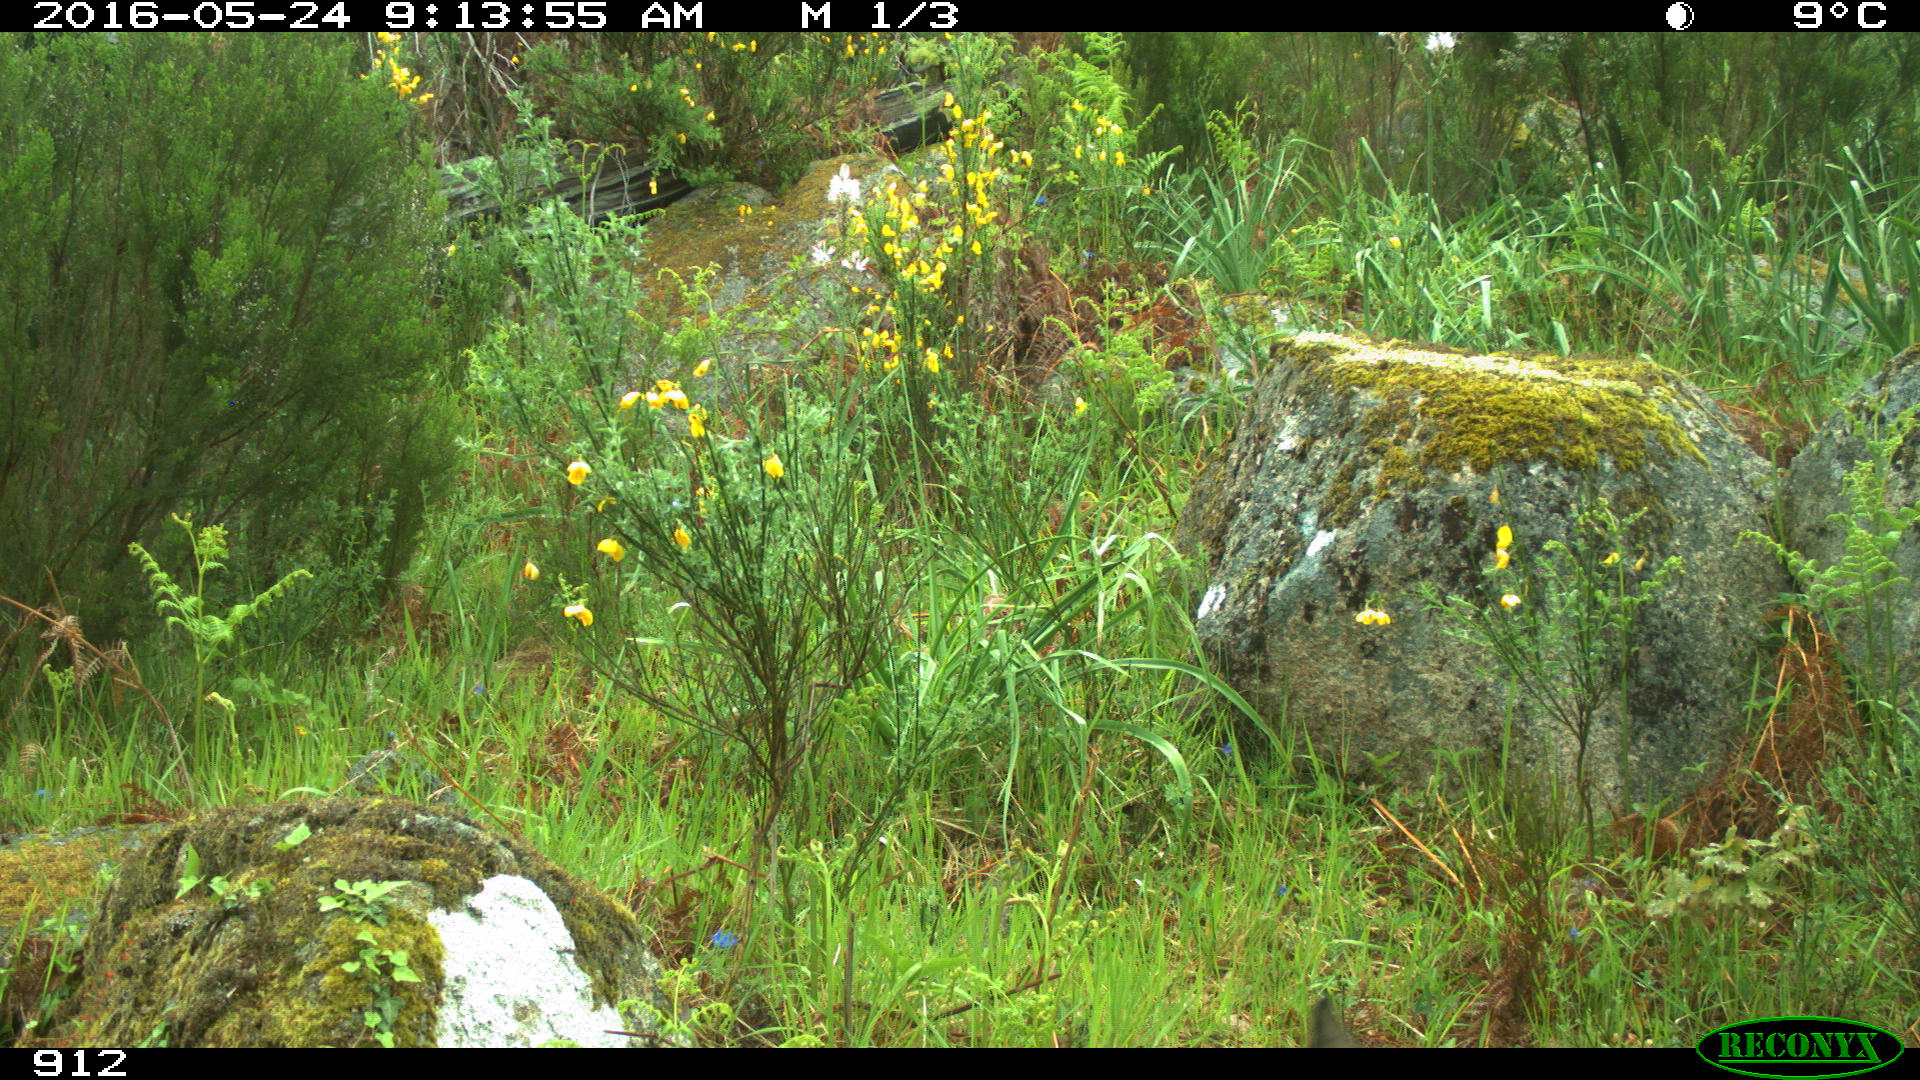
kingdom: Animalia
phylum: Chordata
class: Mammalia
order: Artiodactyla
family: Cervidae
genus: Capreolus
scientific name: Capreolus capreolus
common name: Western roe deer
